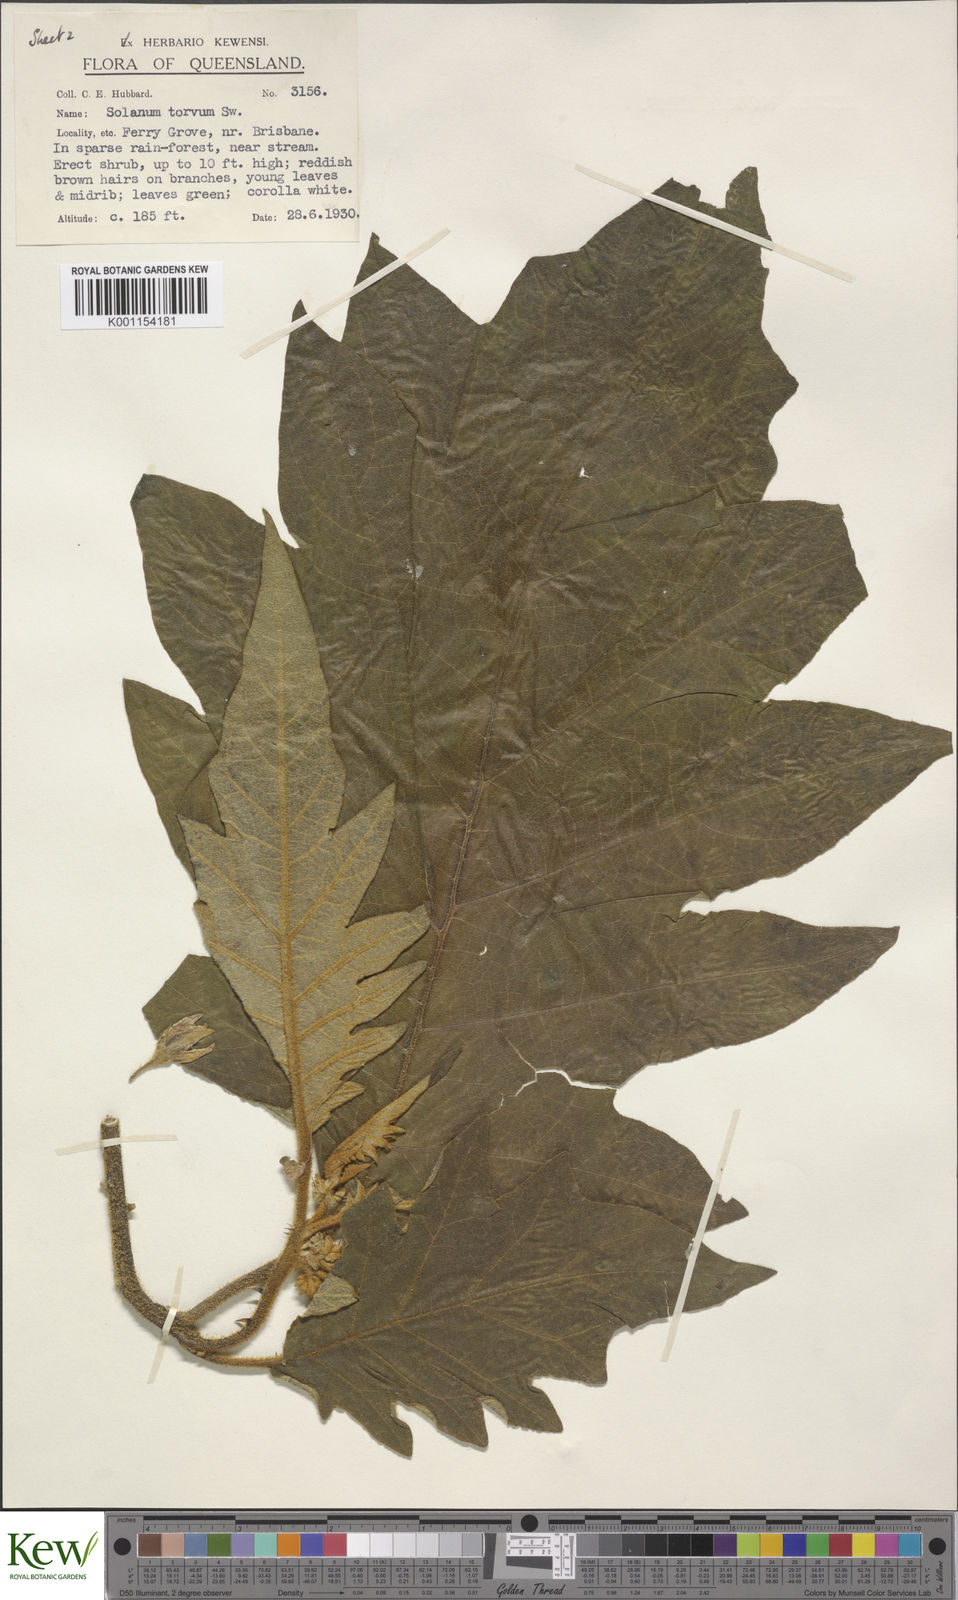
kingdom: Plantae
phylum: Tracheophyta
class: Magnoliopsida
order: Solanales
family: Solanaceae
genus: Solanum
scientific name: Solanum asperolanatum
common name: Devil's-fig
